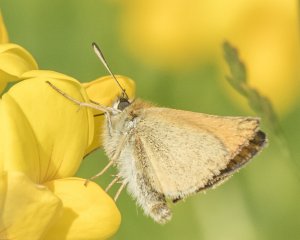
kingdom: Animalia
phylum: Arthropoda
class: Insecta
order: Lepidoptera
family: Hesperiidae
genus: Thymelicus
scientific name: Thymelicus lineola
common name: European Skipper
